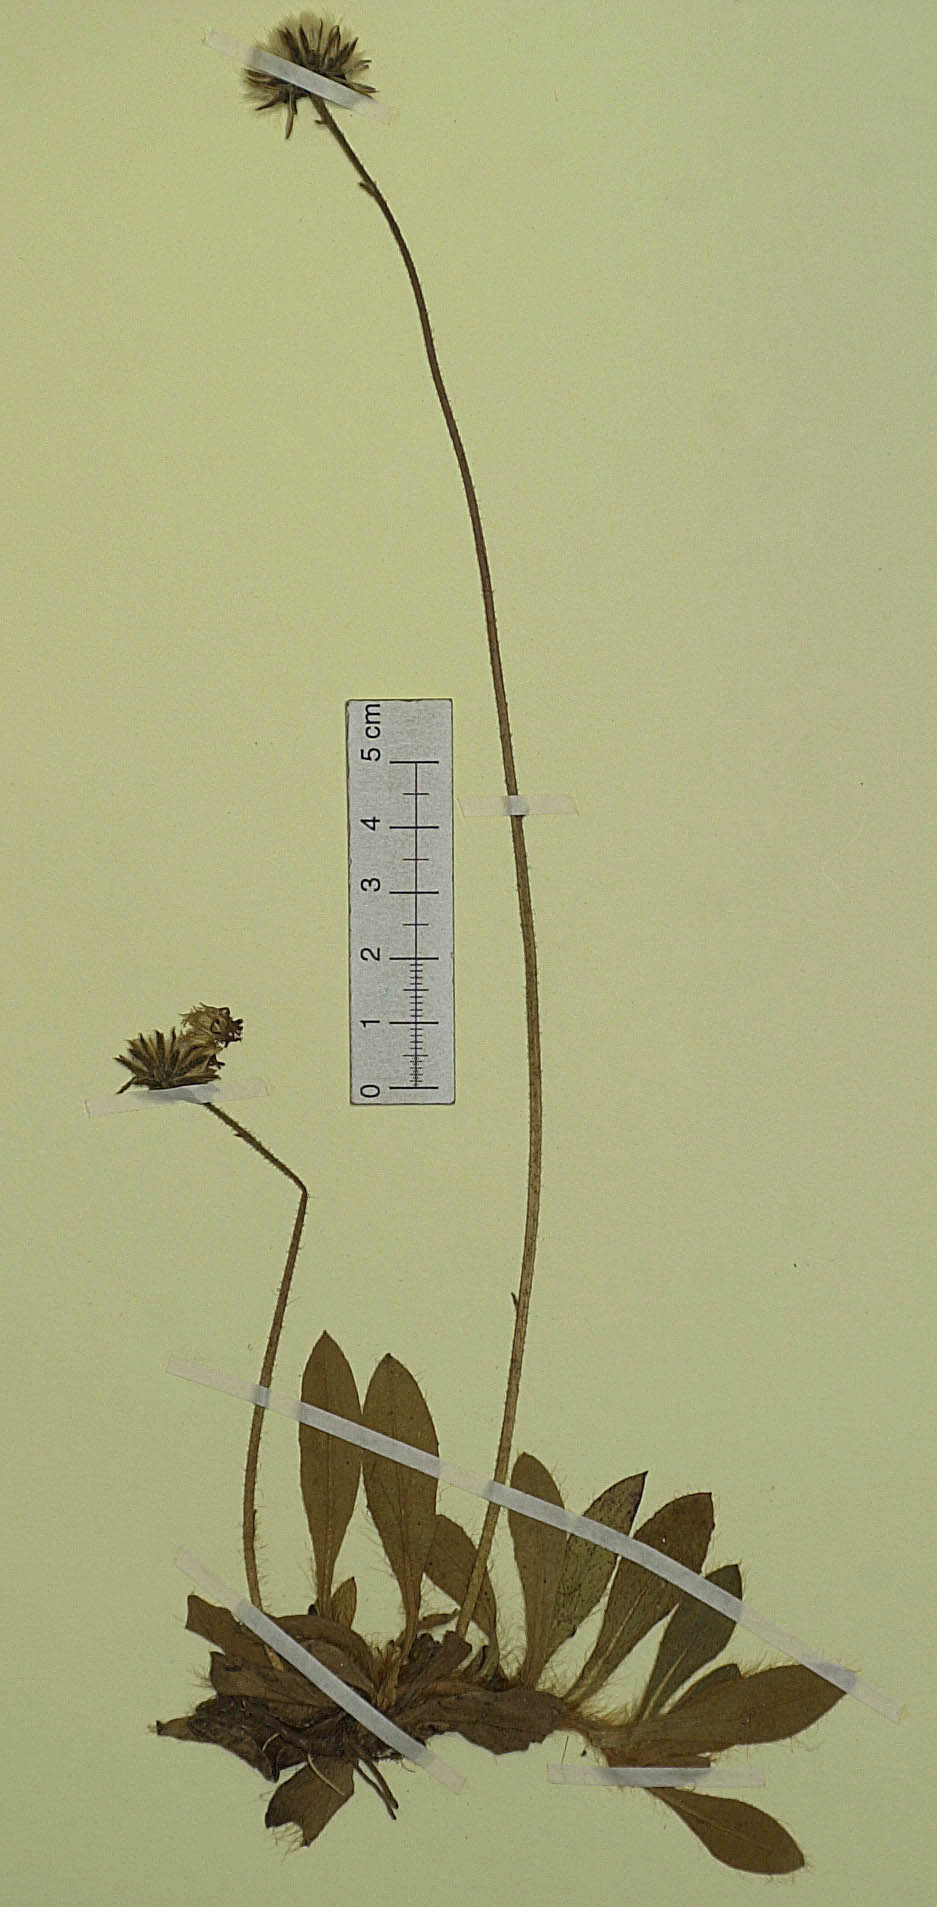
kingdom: Plantae
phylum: Tracheophyta
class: Magnoliopsida
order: Asterales
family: Asteraceae
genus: Pilosella
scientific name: Pilosella hypeurya
